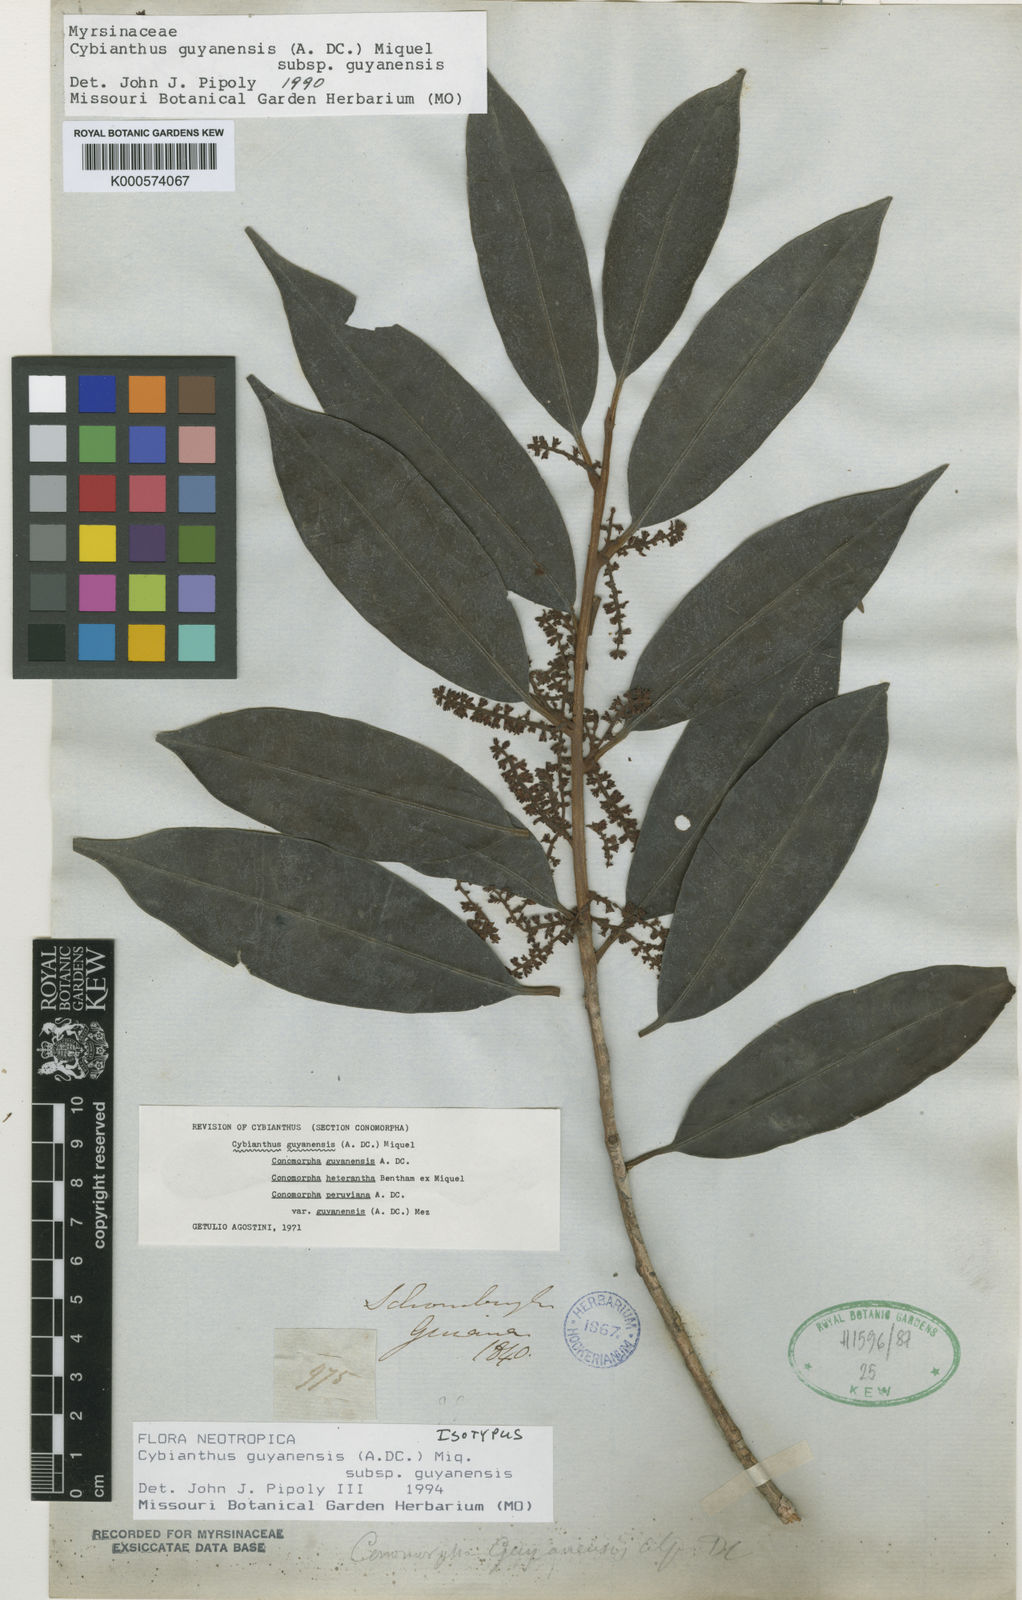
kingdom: Plantae
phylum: Tracheophyta
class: Magnoliopsida
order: Ericales
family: Primulaceae
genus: Cybianthus
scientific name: Cybianthus guyanensis
